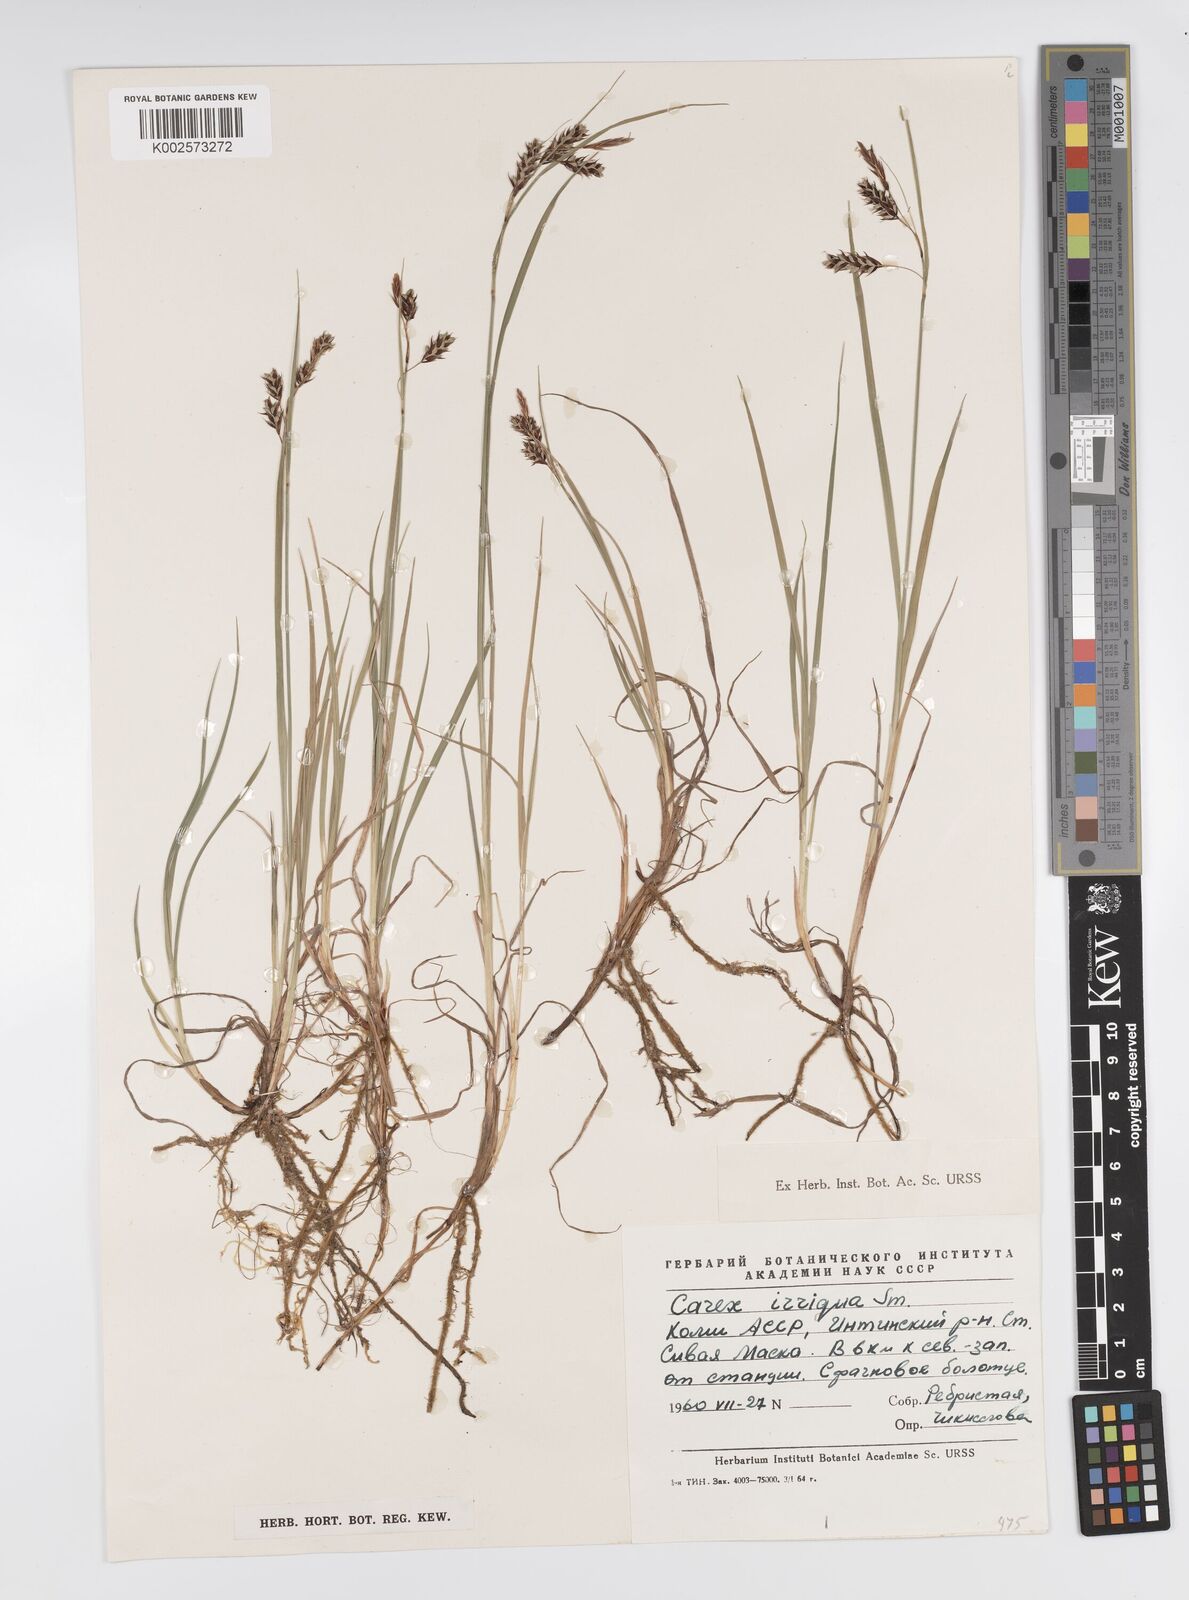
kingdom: Plantae
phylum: Tracheophyta
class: Liliopsida
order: Poales
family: Cyperaceae
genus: Carex
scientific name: Carex magellanica
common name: Bog sedge
